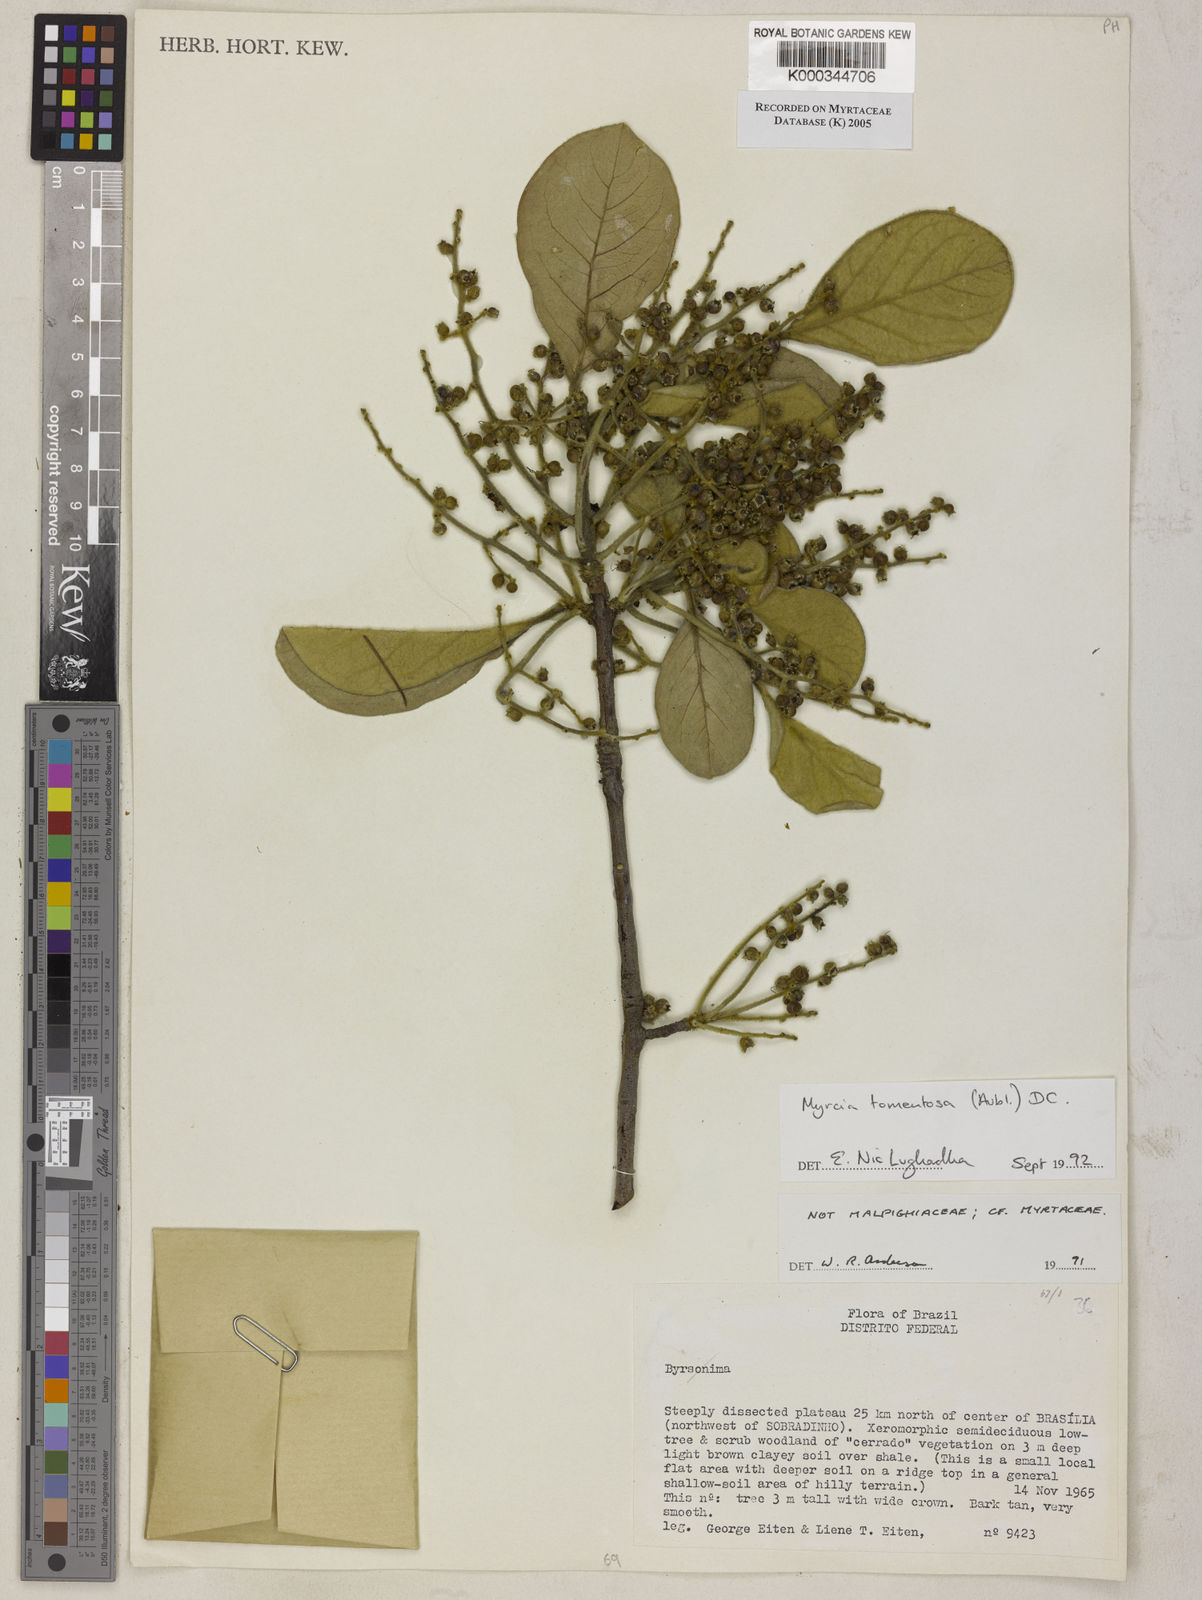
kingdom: Plantae
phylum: Tracheophyta
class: Magnoliopsida
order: Myrtales
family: Myrtaceae
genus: Myrcia
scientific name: Myrcia tomentosa
